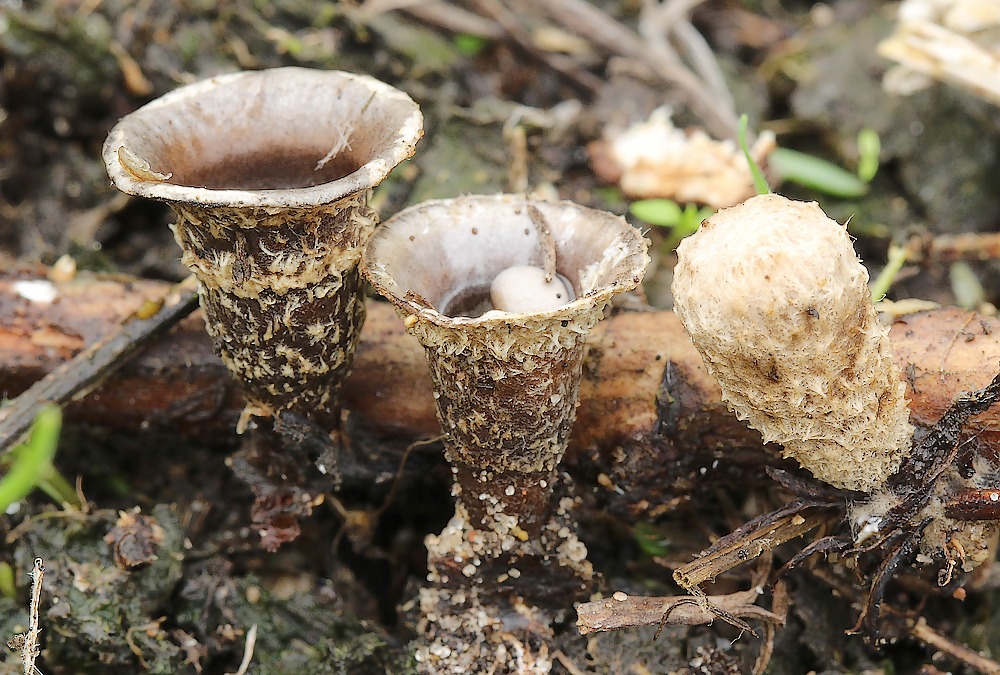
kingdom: Fungi
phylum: Basidiomycota
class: Agaricomycetes
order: Agaricales
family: Agaricaceae
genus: Cyathus
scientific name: Cyathus olla
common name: klokke-redesvamp
